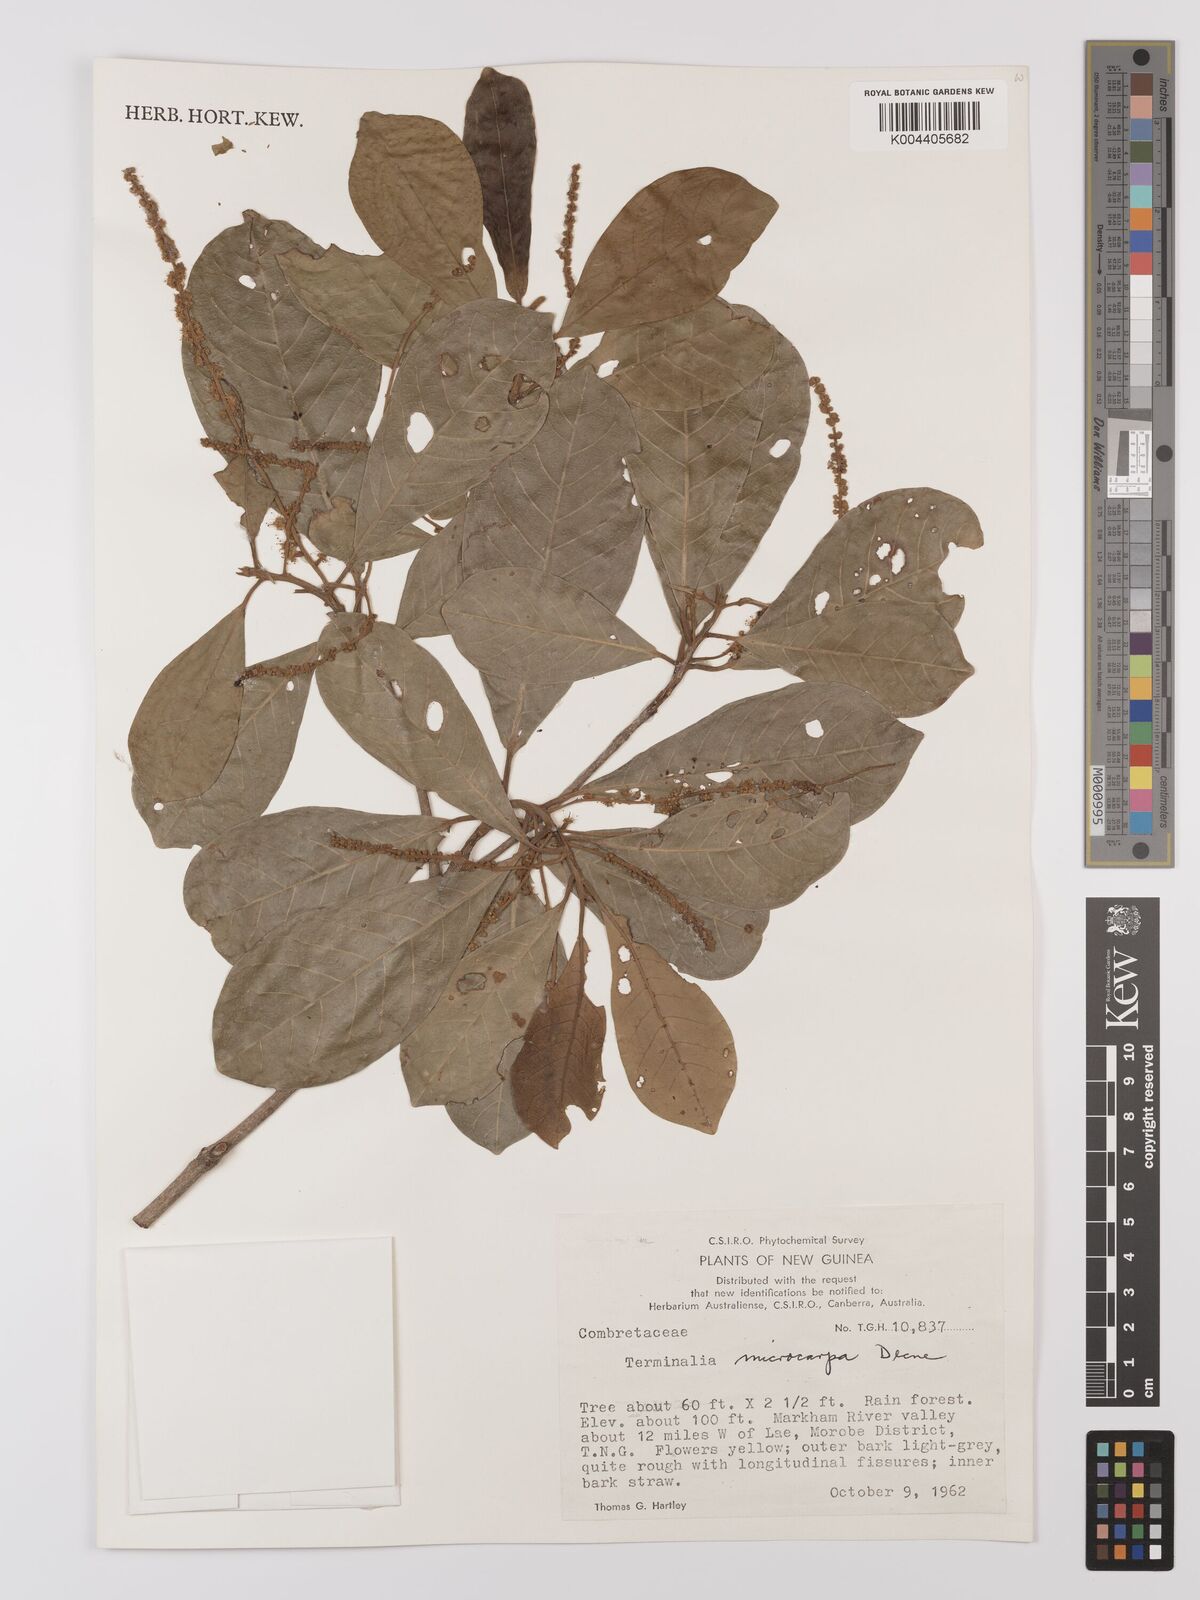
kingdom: Plantae
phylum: Tracheophyta
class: Magnoliopsida
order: Myrtales
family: Combretaceae
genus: Terminalia
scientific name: Terminalia
